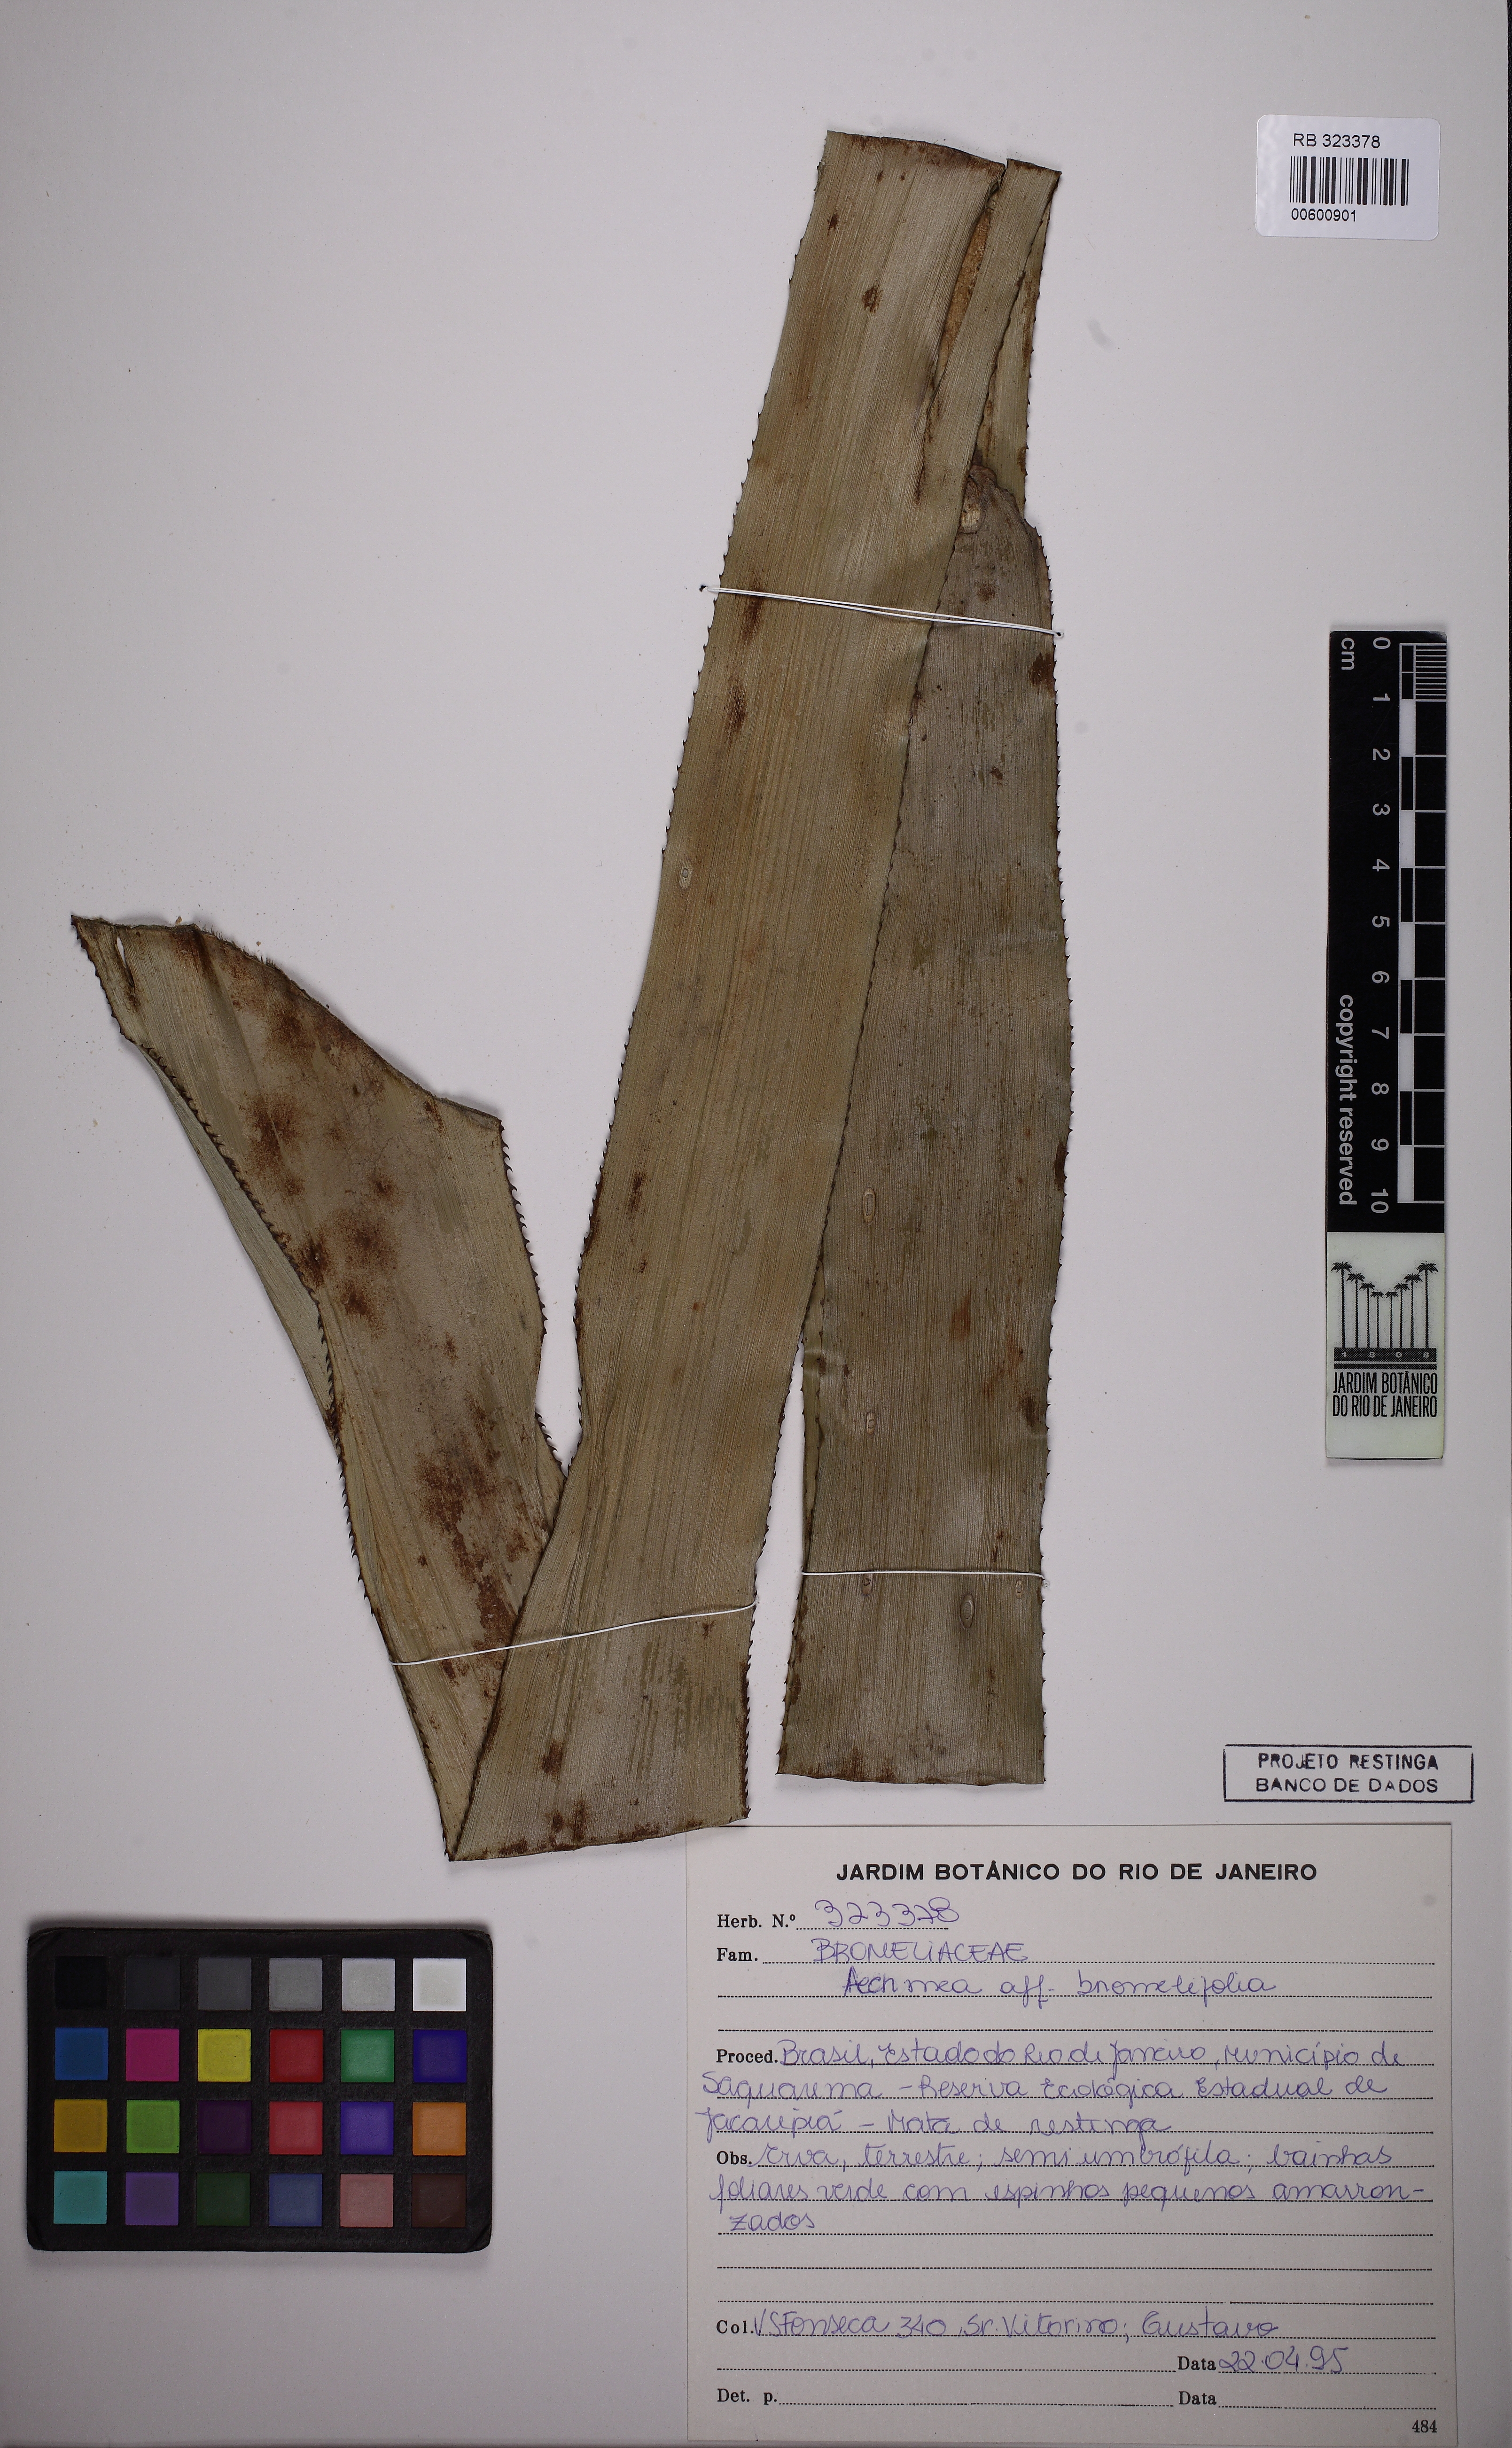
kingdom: Plantae
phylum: Tracheophyta
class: Liliopsida
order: Poales
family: Bromeliaceae
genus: Aechmea
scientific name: Aechmea bromeliifolia
